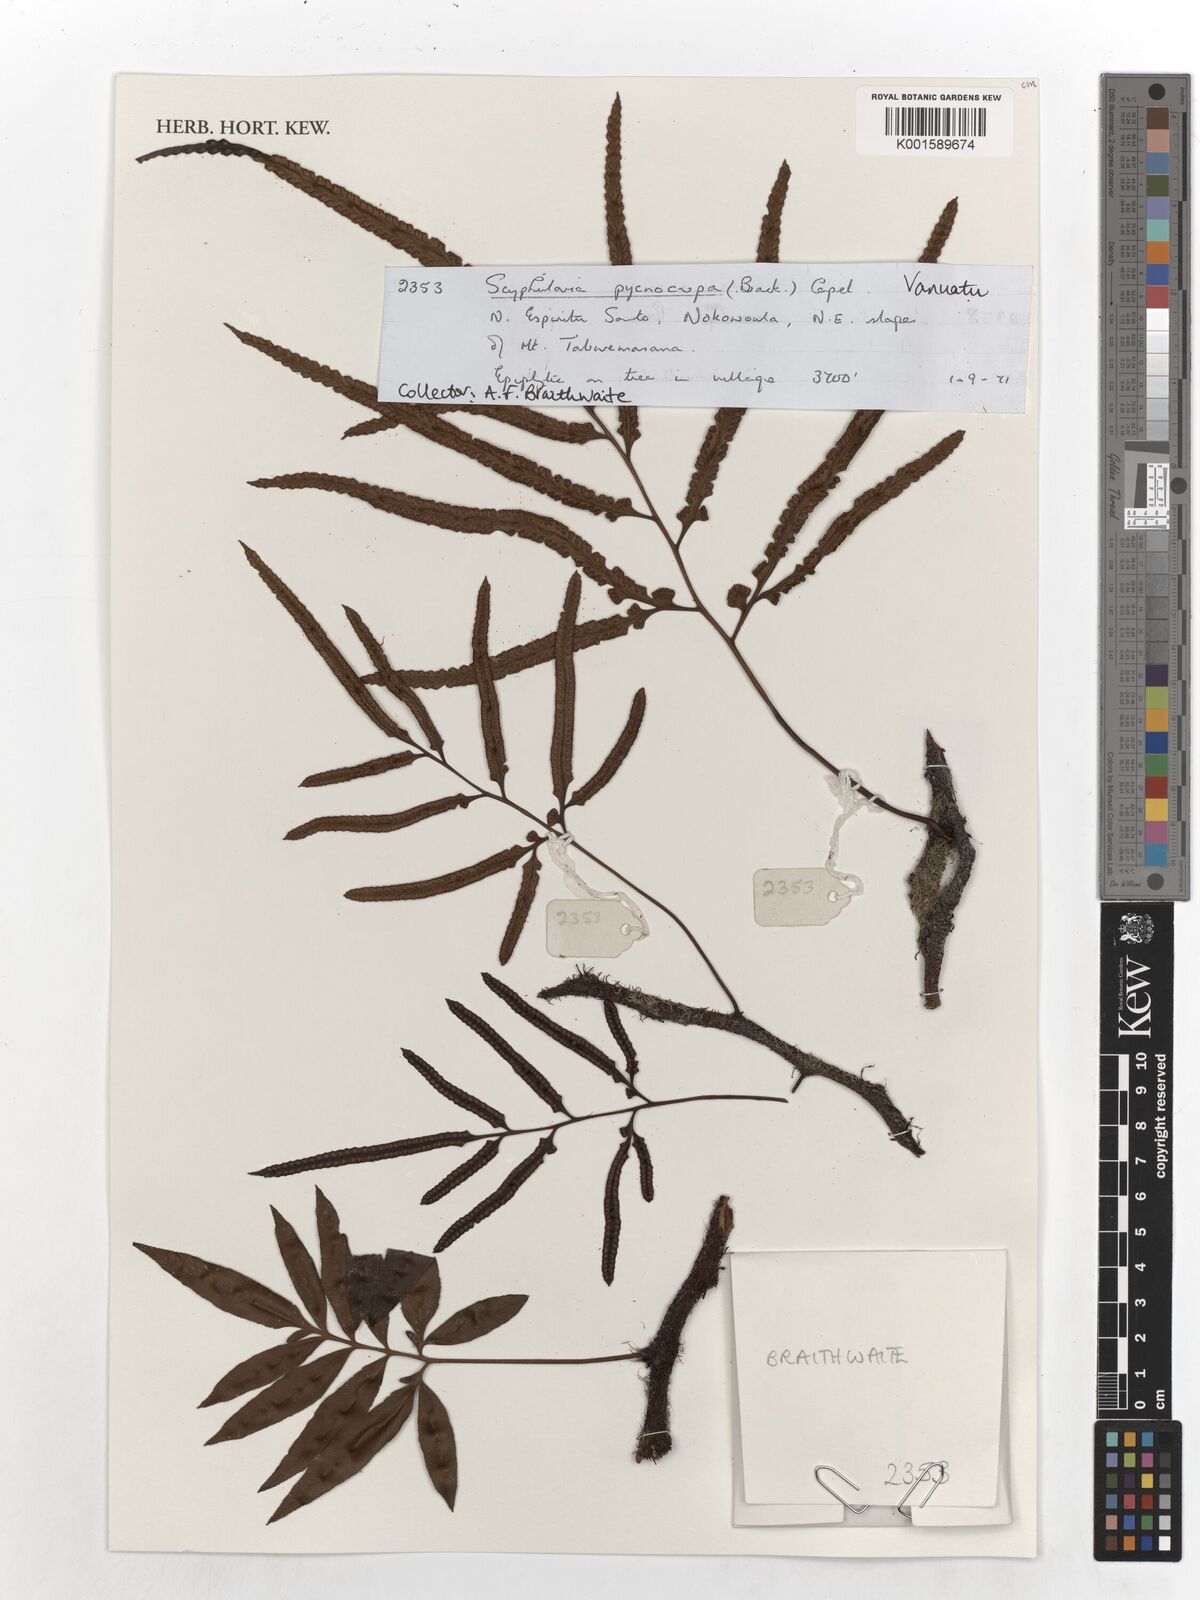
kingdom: Plantae
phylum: Tracheophyta
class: Polypodiopsida
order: Polypodiales
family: Davalliaceae
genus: Davallia
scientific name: Davallia pentaphylla
